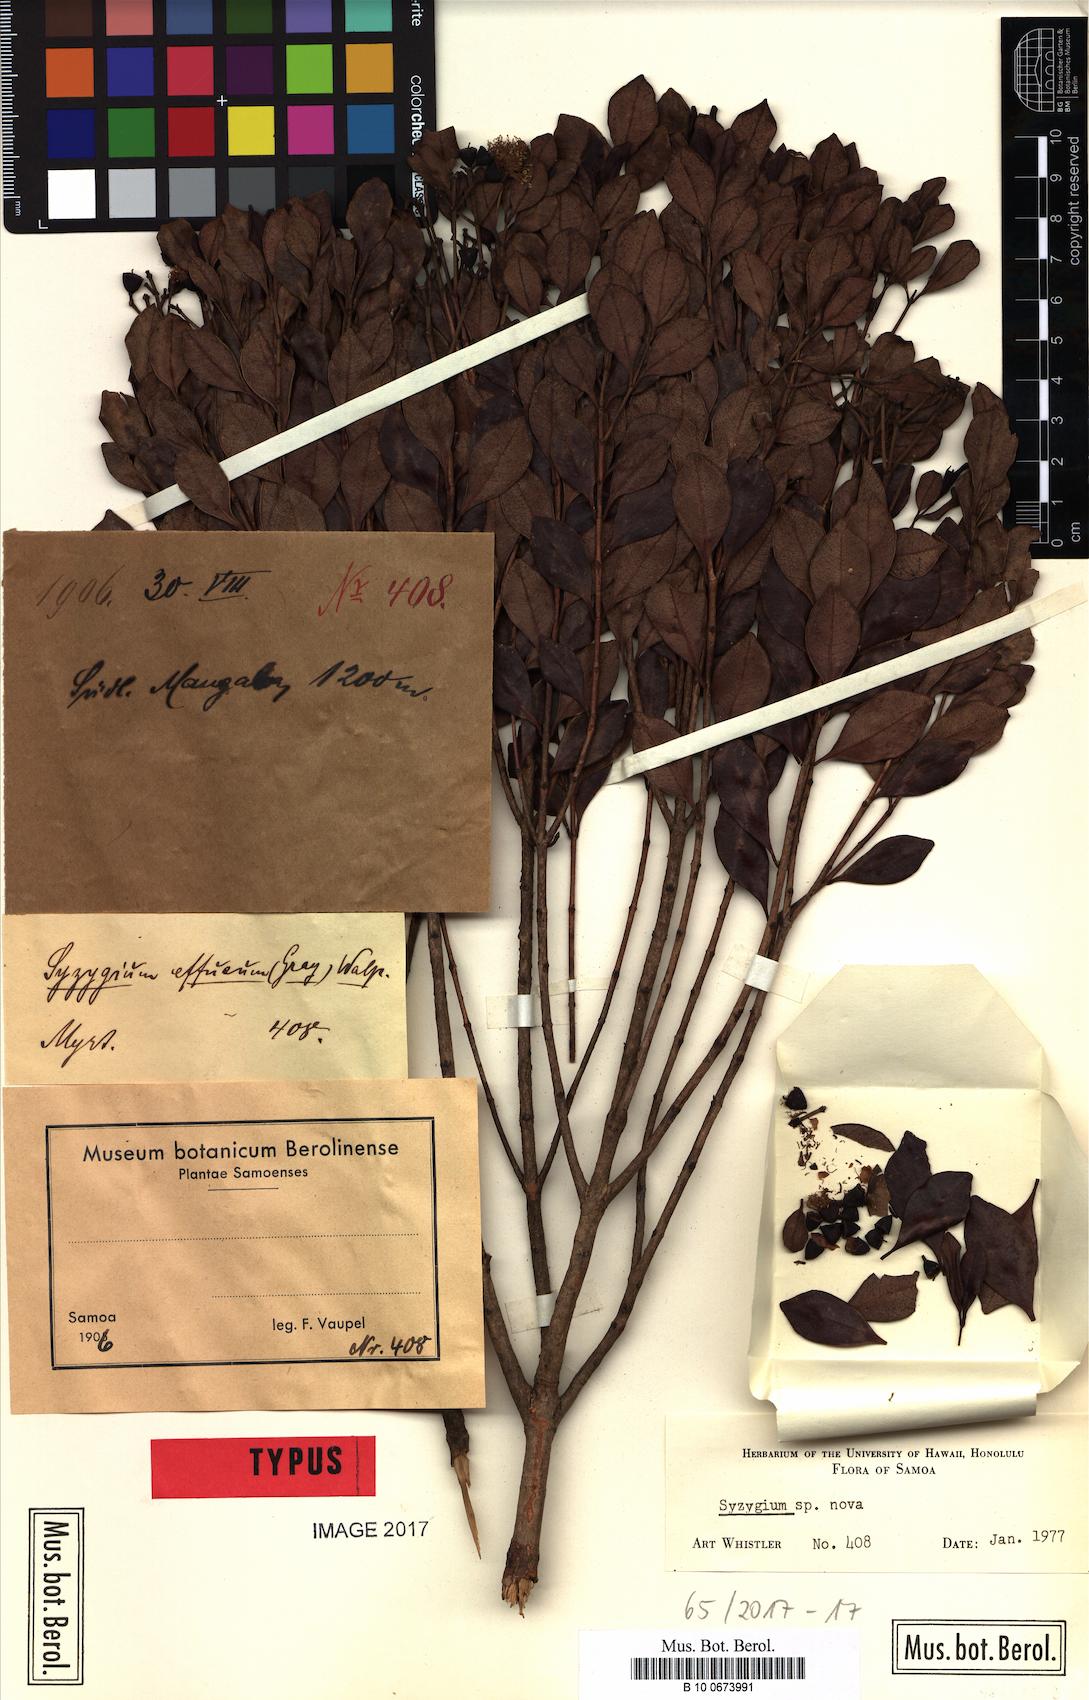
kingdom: Plantae
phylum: Tracheophyta
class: Magnoliopsida
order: Myrtales
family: Myrtaceae
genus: Syzygium
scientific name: Syzygium vaupelii
